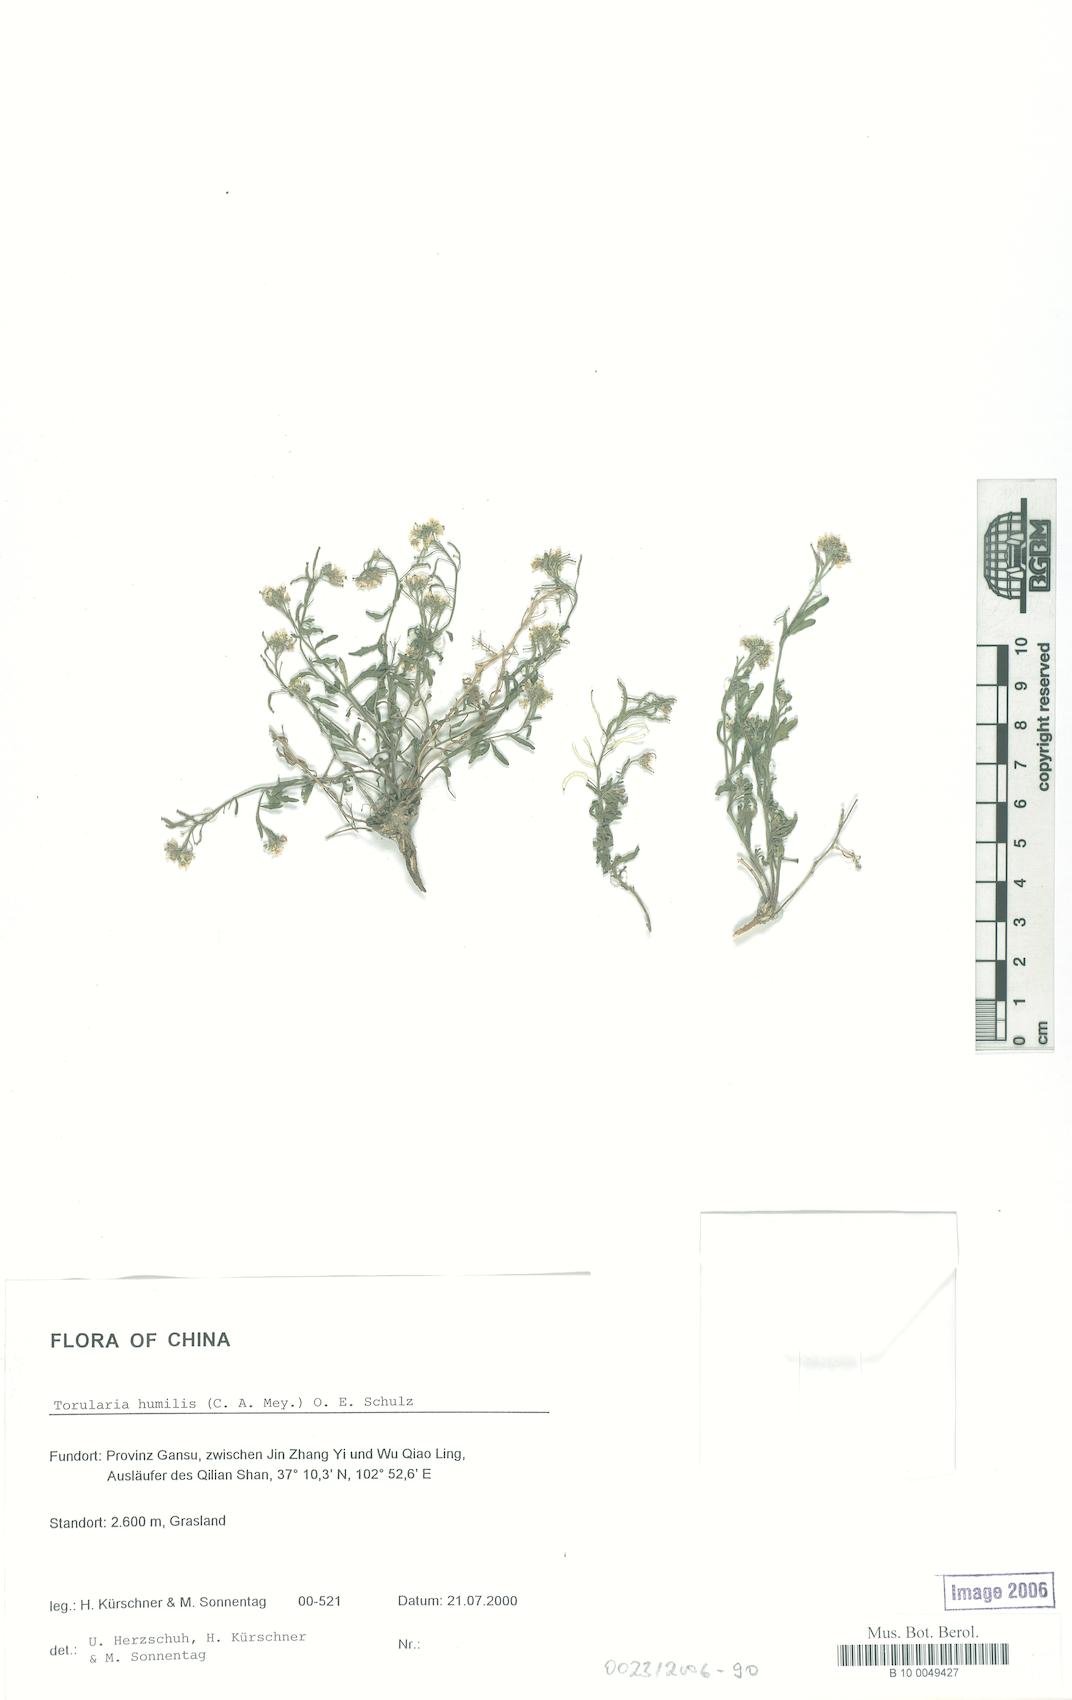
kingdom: Plantae
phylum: Tracheophyta
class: Magnoliopsida
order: Brassicales
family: Brassicaceae
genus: Braya
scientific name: Braya humilis
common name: Alpine northern rockcress
